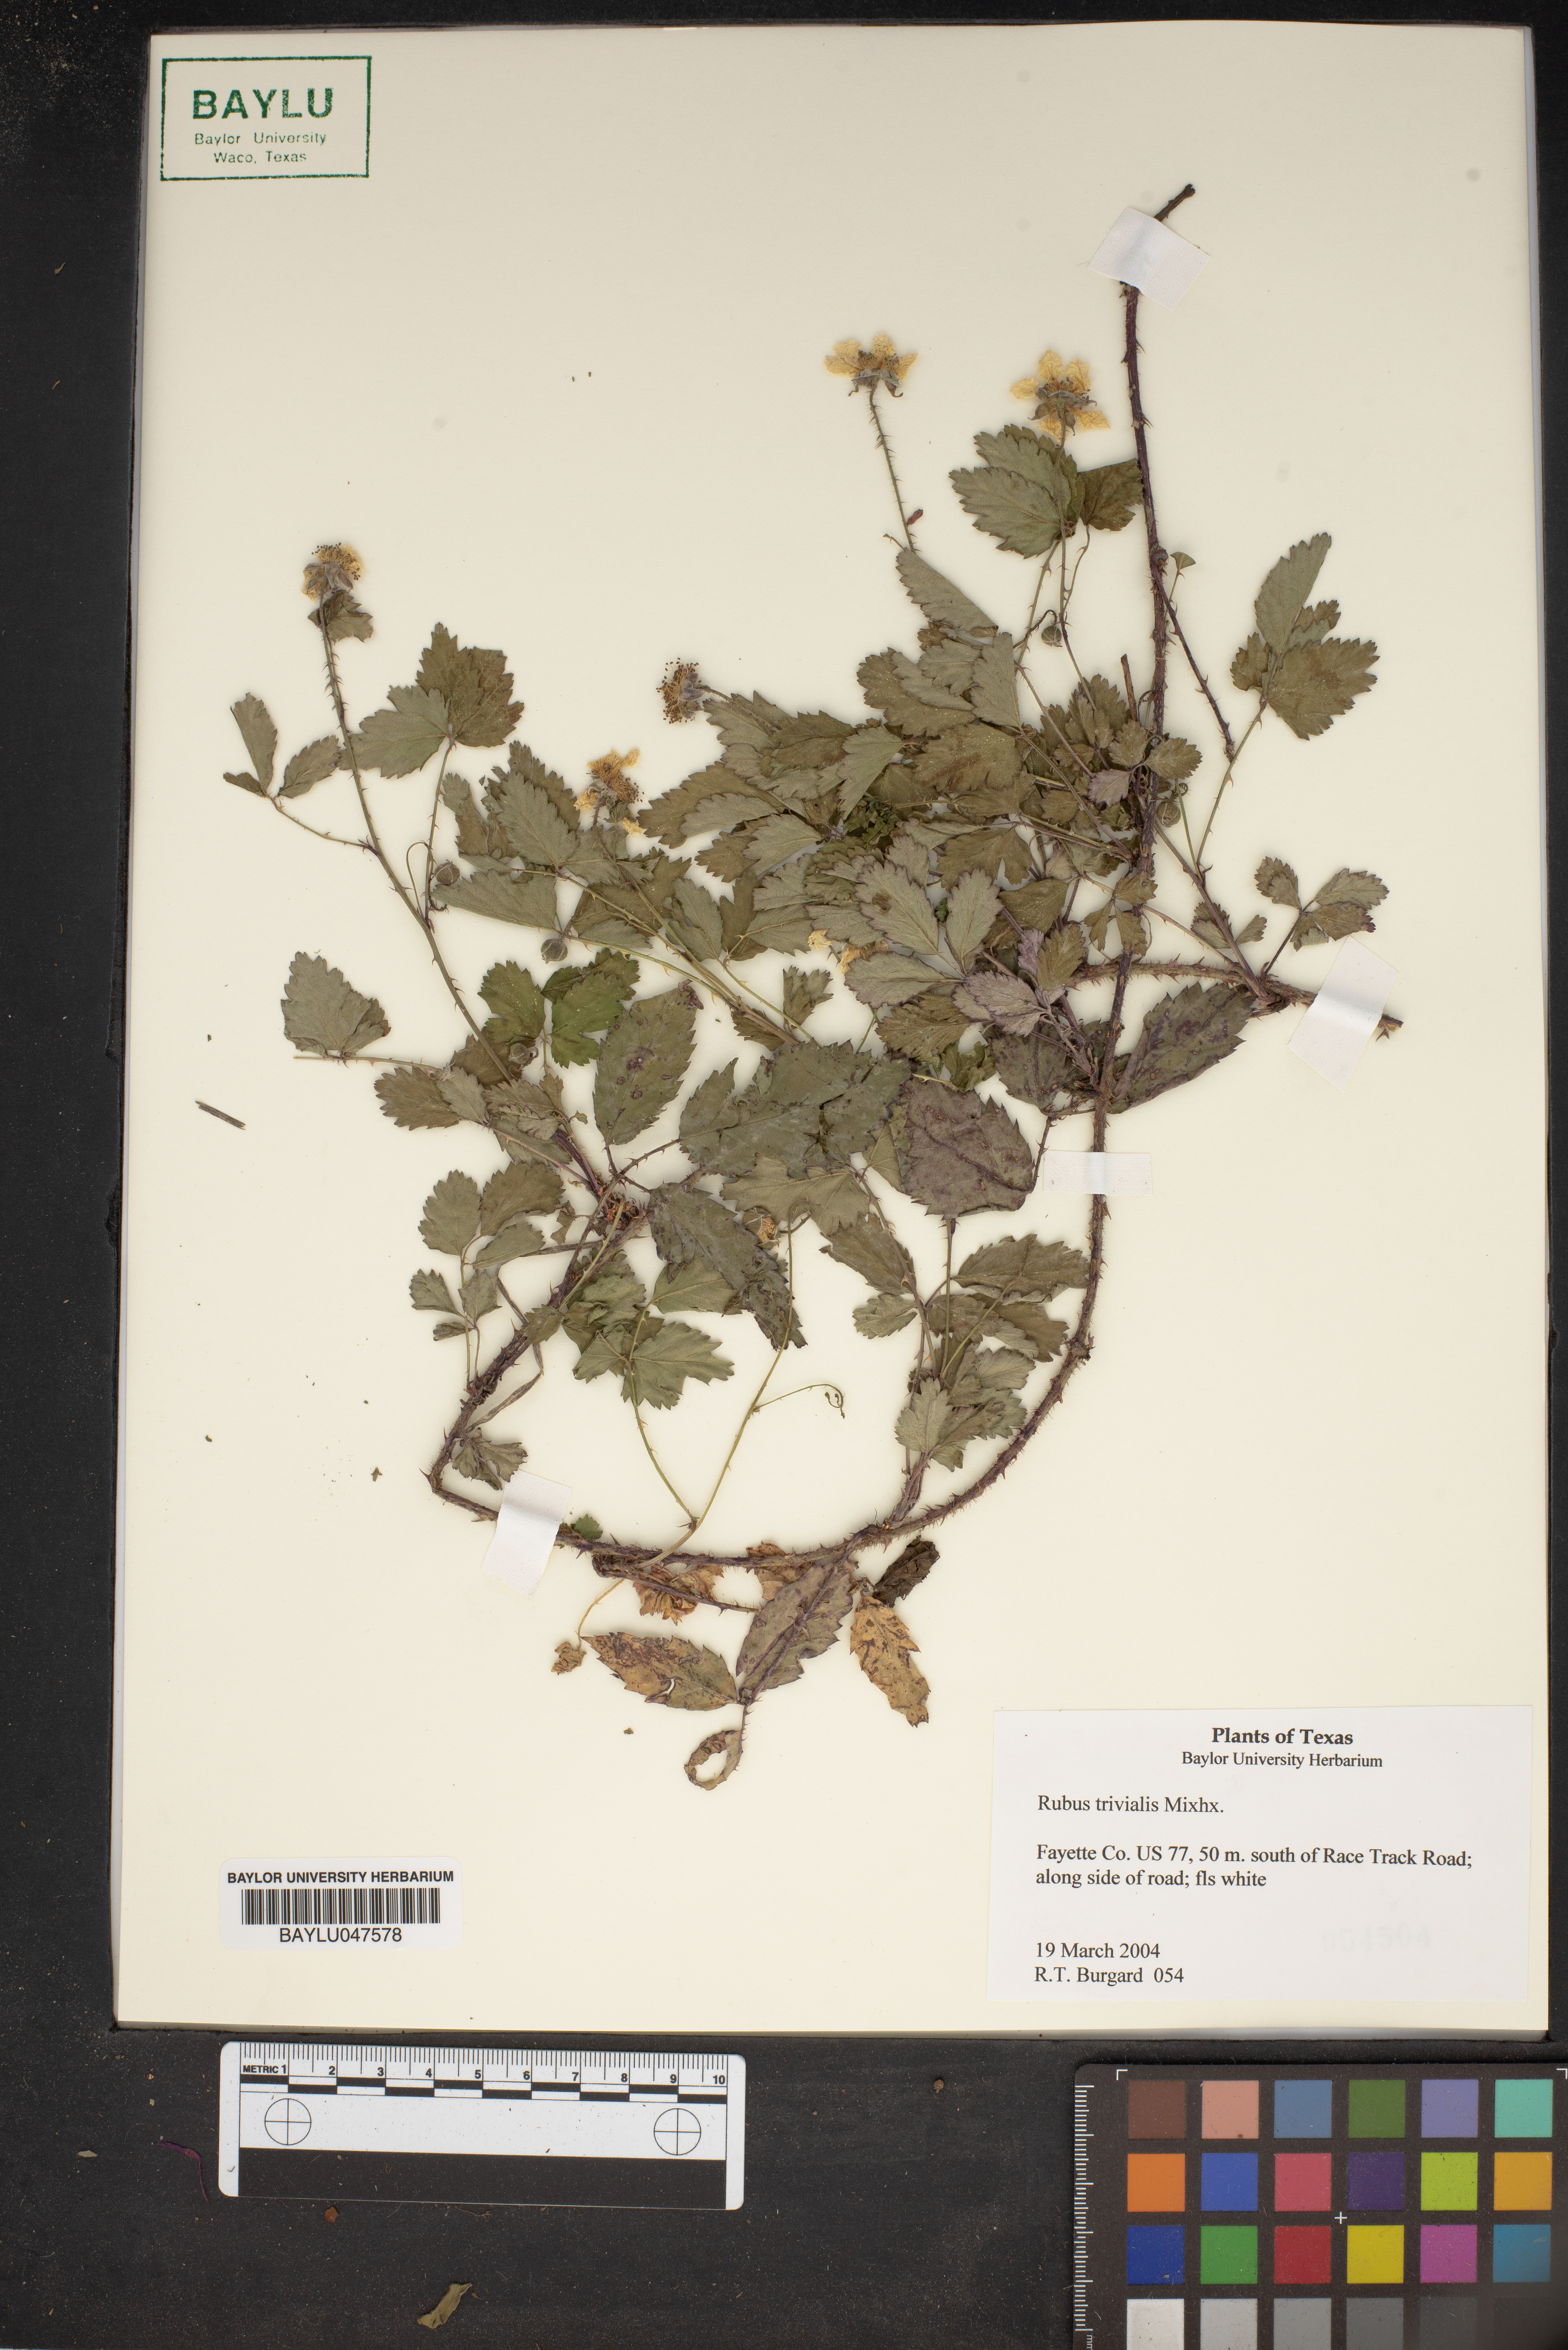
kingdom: Plantae
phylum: Tracheophyta
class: Magnoliopsida
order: Rosales
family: Rosaceae
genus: Rubus
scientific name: Rubus trivialis
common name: Southern dewberry
